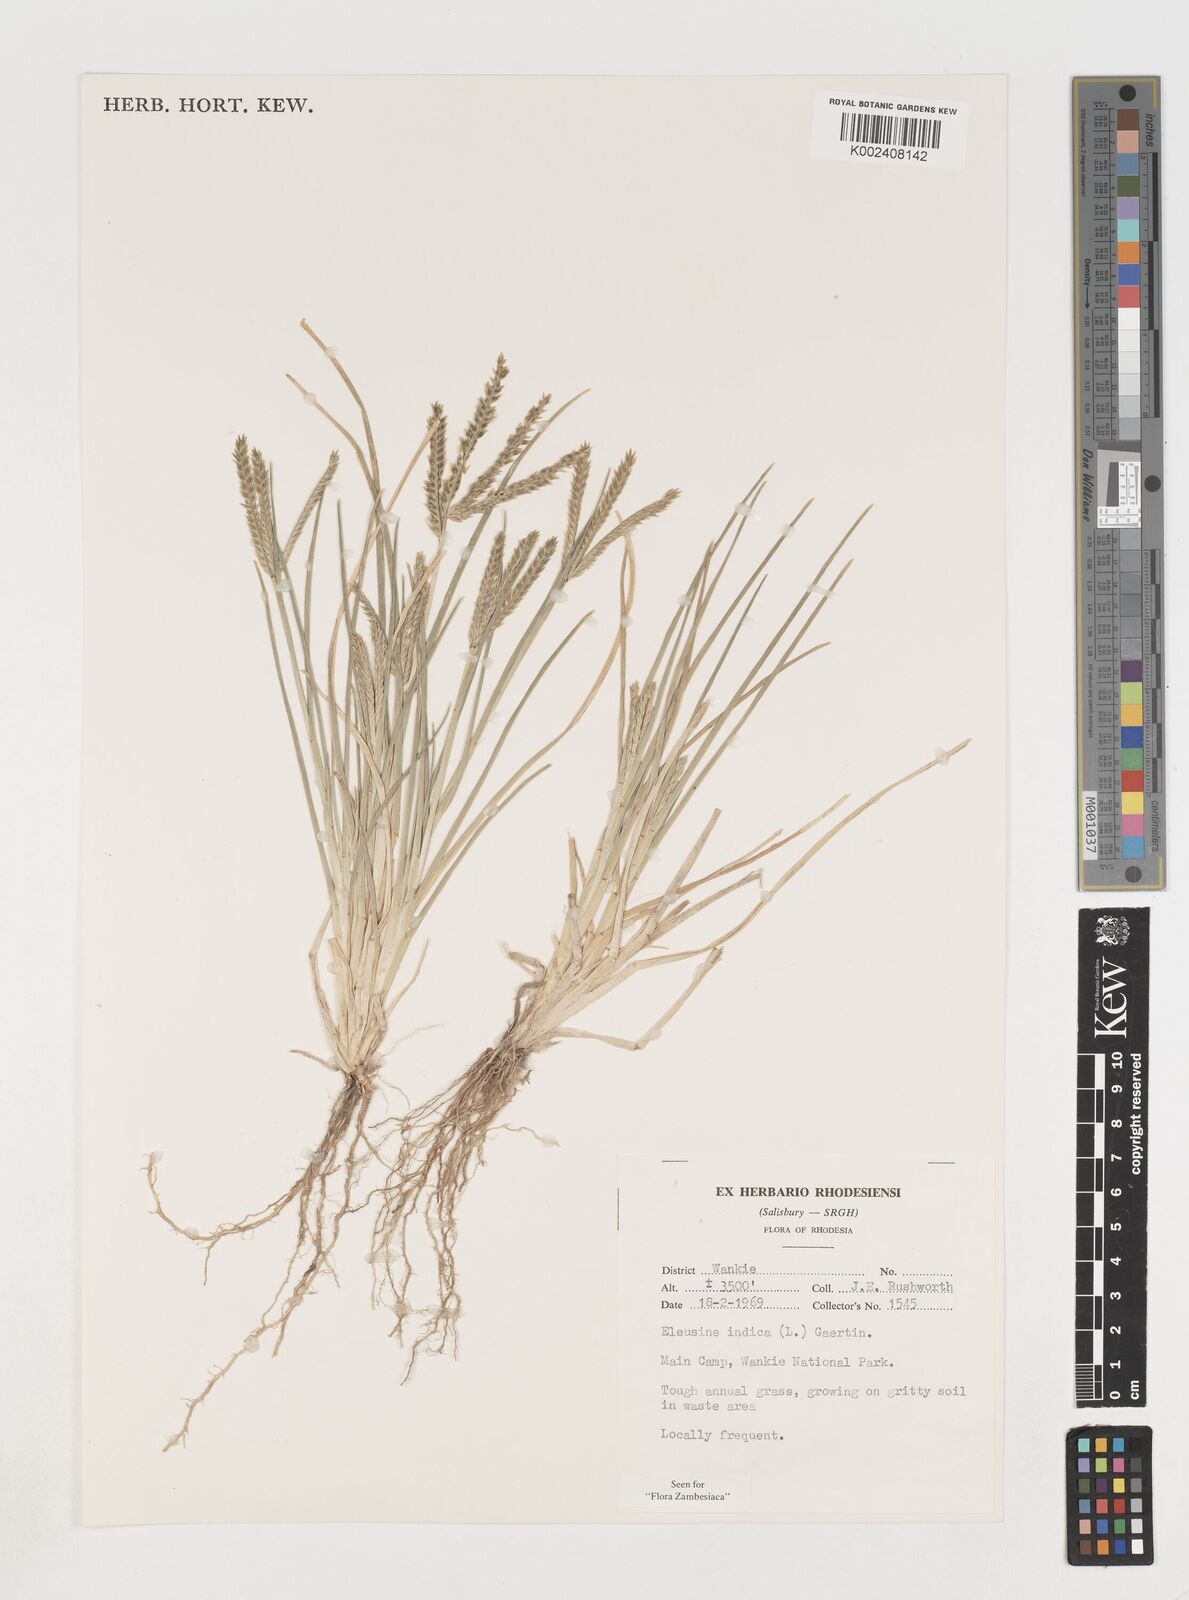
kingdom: Plantae
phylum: Tracheophyta
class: Liliopsida
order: Poales
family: Poaceae
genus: Eleusine
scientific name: Eleusine africana
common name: Wild african finger millet
